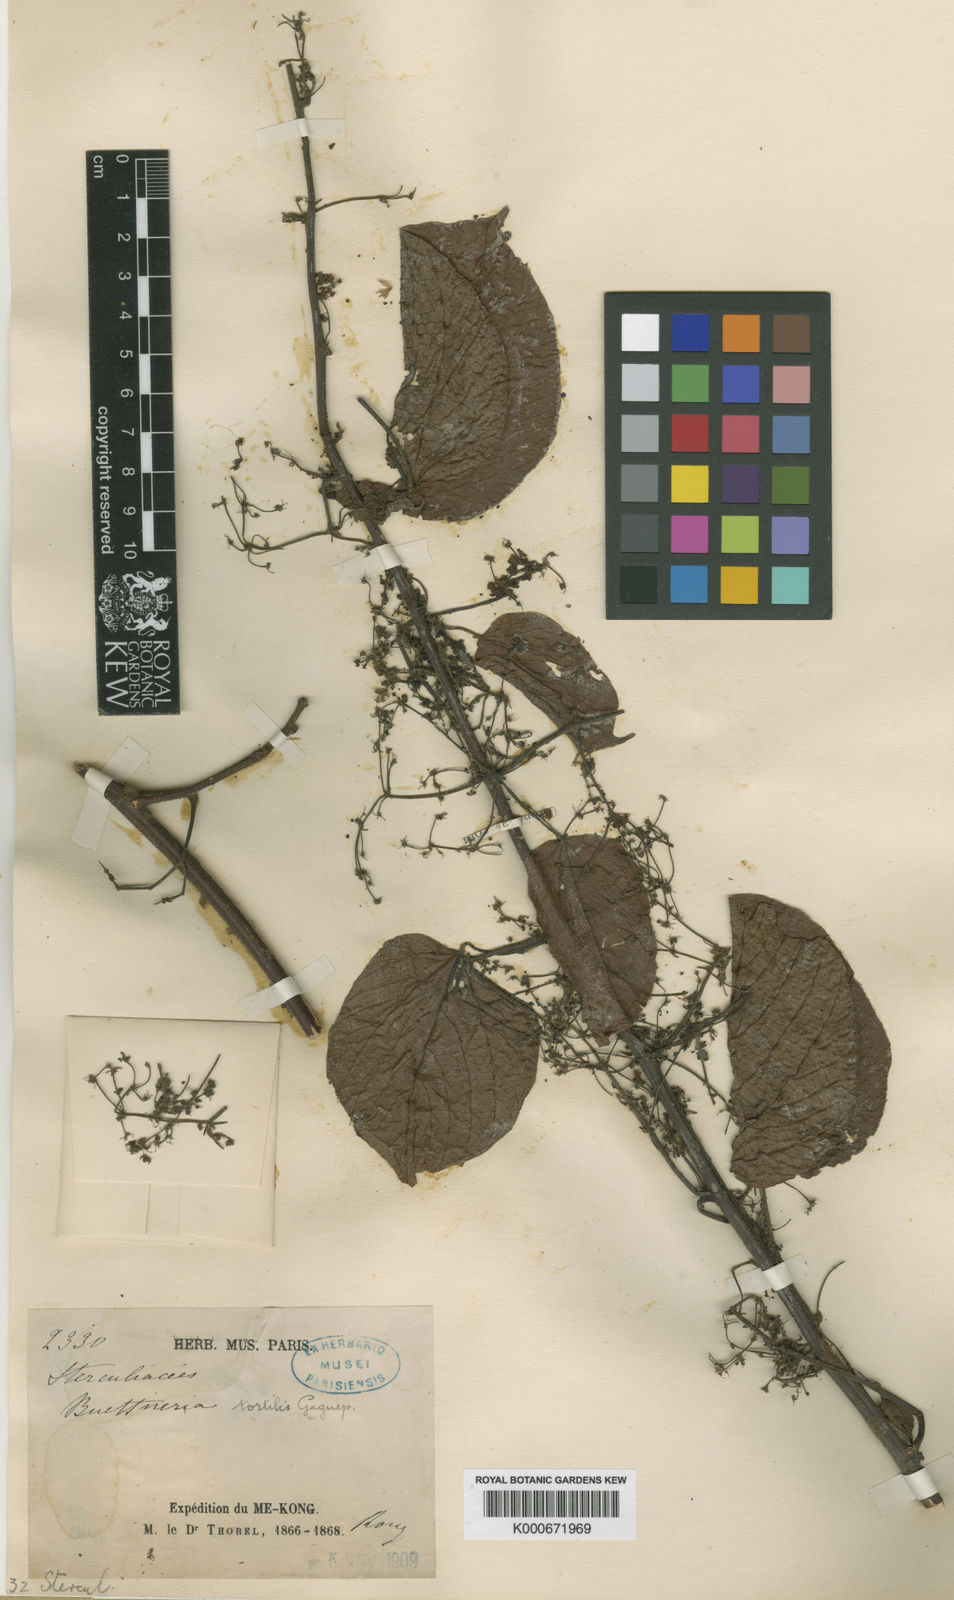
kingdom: Plantae
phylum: Tracheophyta
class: Magnoliopsida
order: Malvales
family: Malvaceae
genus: Byttneria
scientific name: Byttneria tortilis
